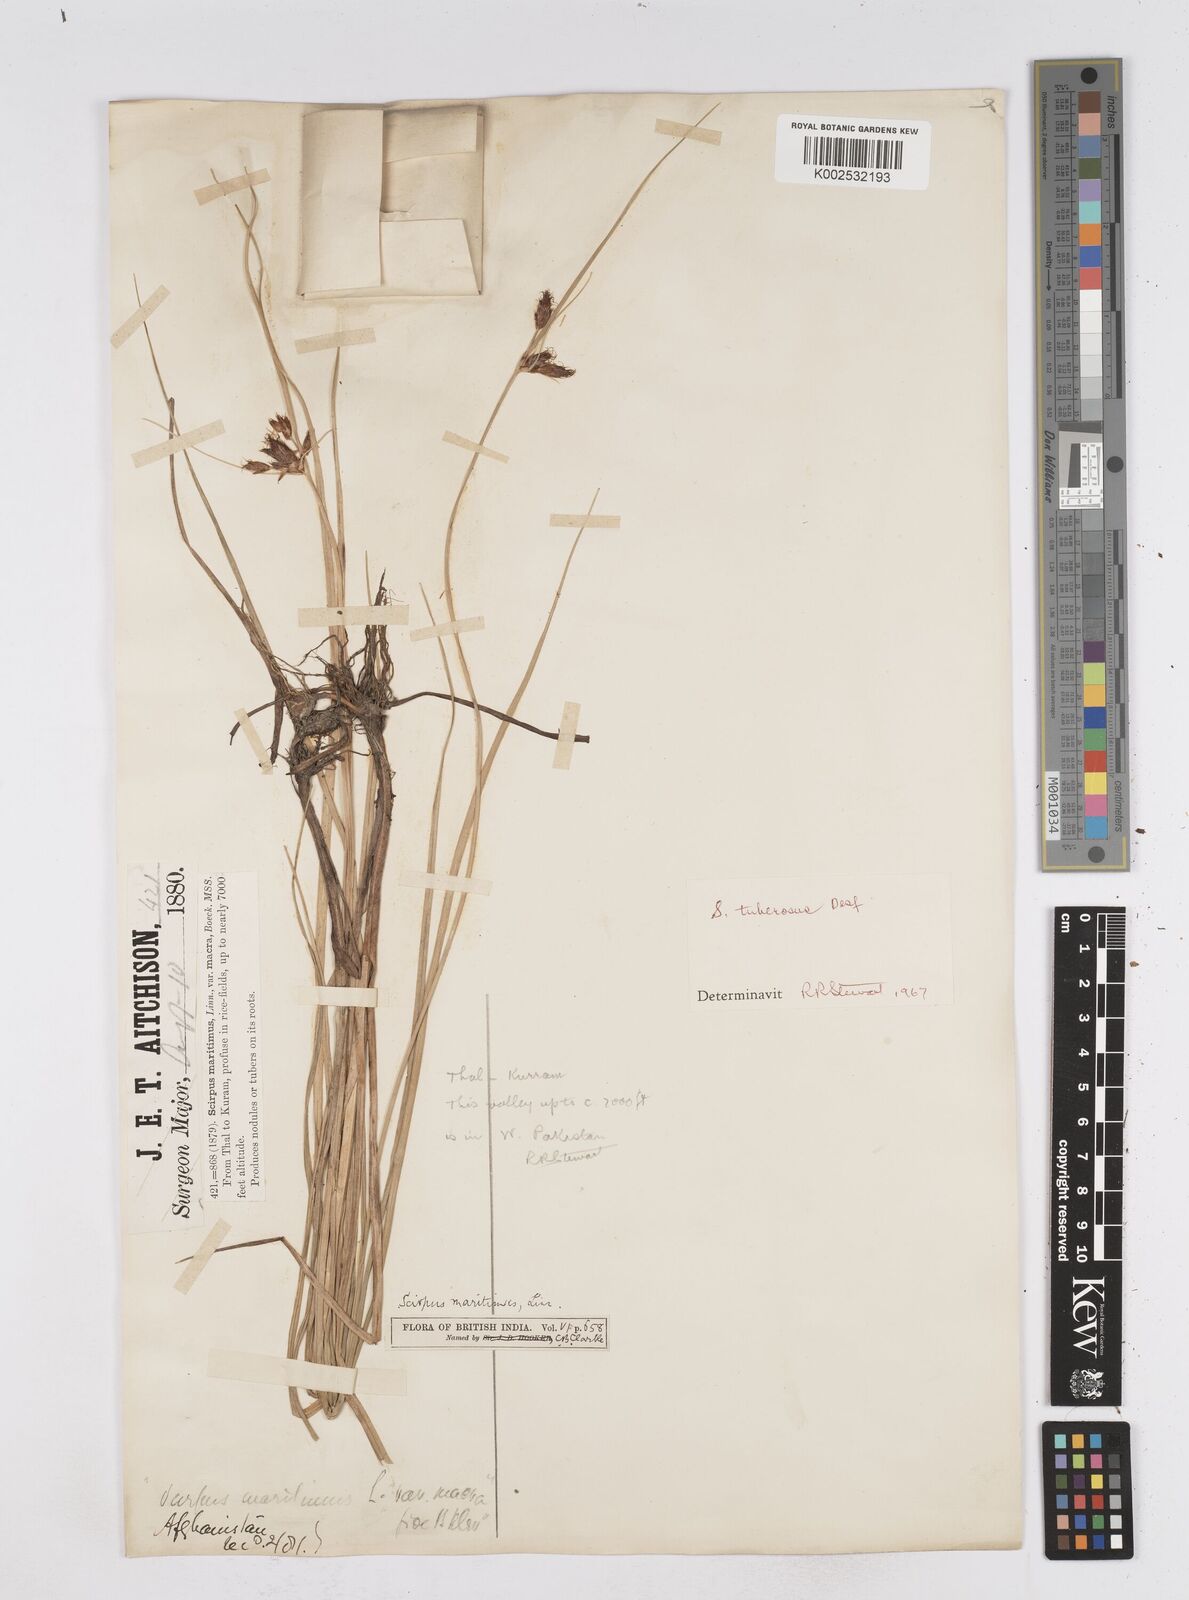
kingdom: Plantae
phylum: Tracheophyta
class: Liliopsida
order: Poales
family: Cyperaceae
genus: Bolboschoenus
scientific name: Bolboschoenus maritimus
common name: Sea club-rush
